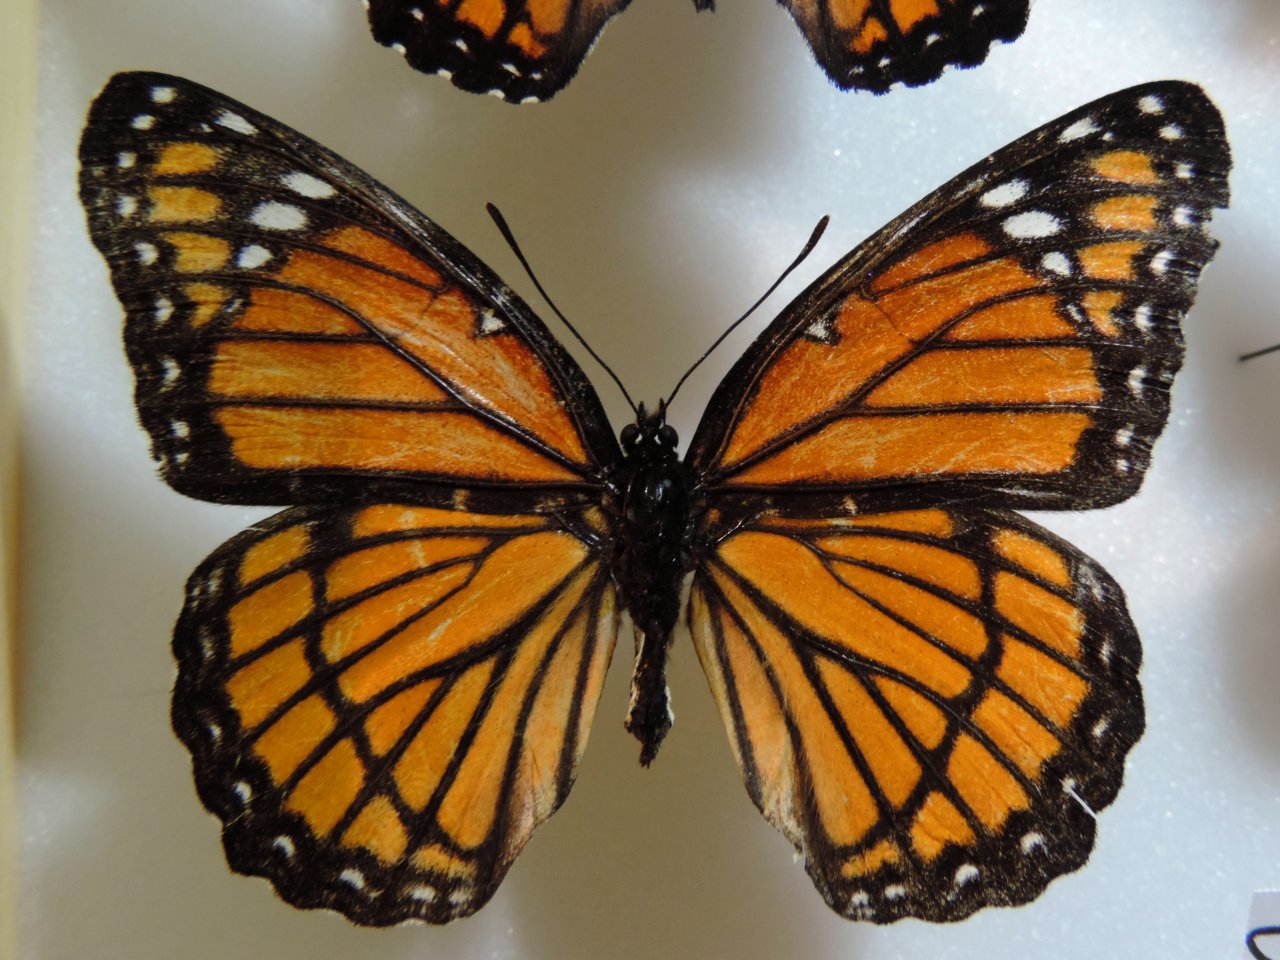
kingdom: Animalia
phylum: Arthropoda
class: Insecta
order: Lepidoptera
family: Nymphalidae
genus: Limenitis
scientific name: Limenitis archippus
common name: Viceroy
